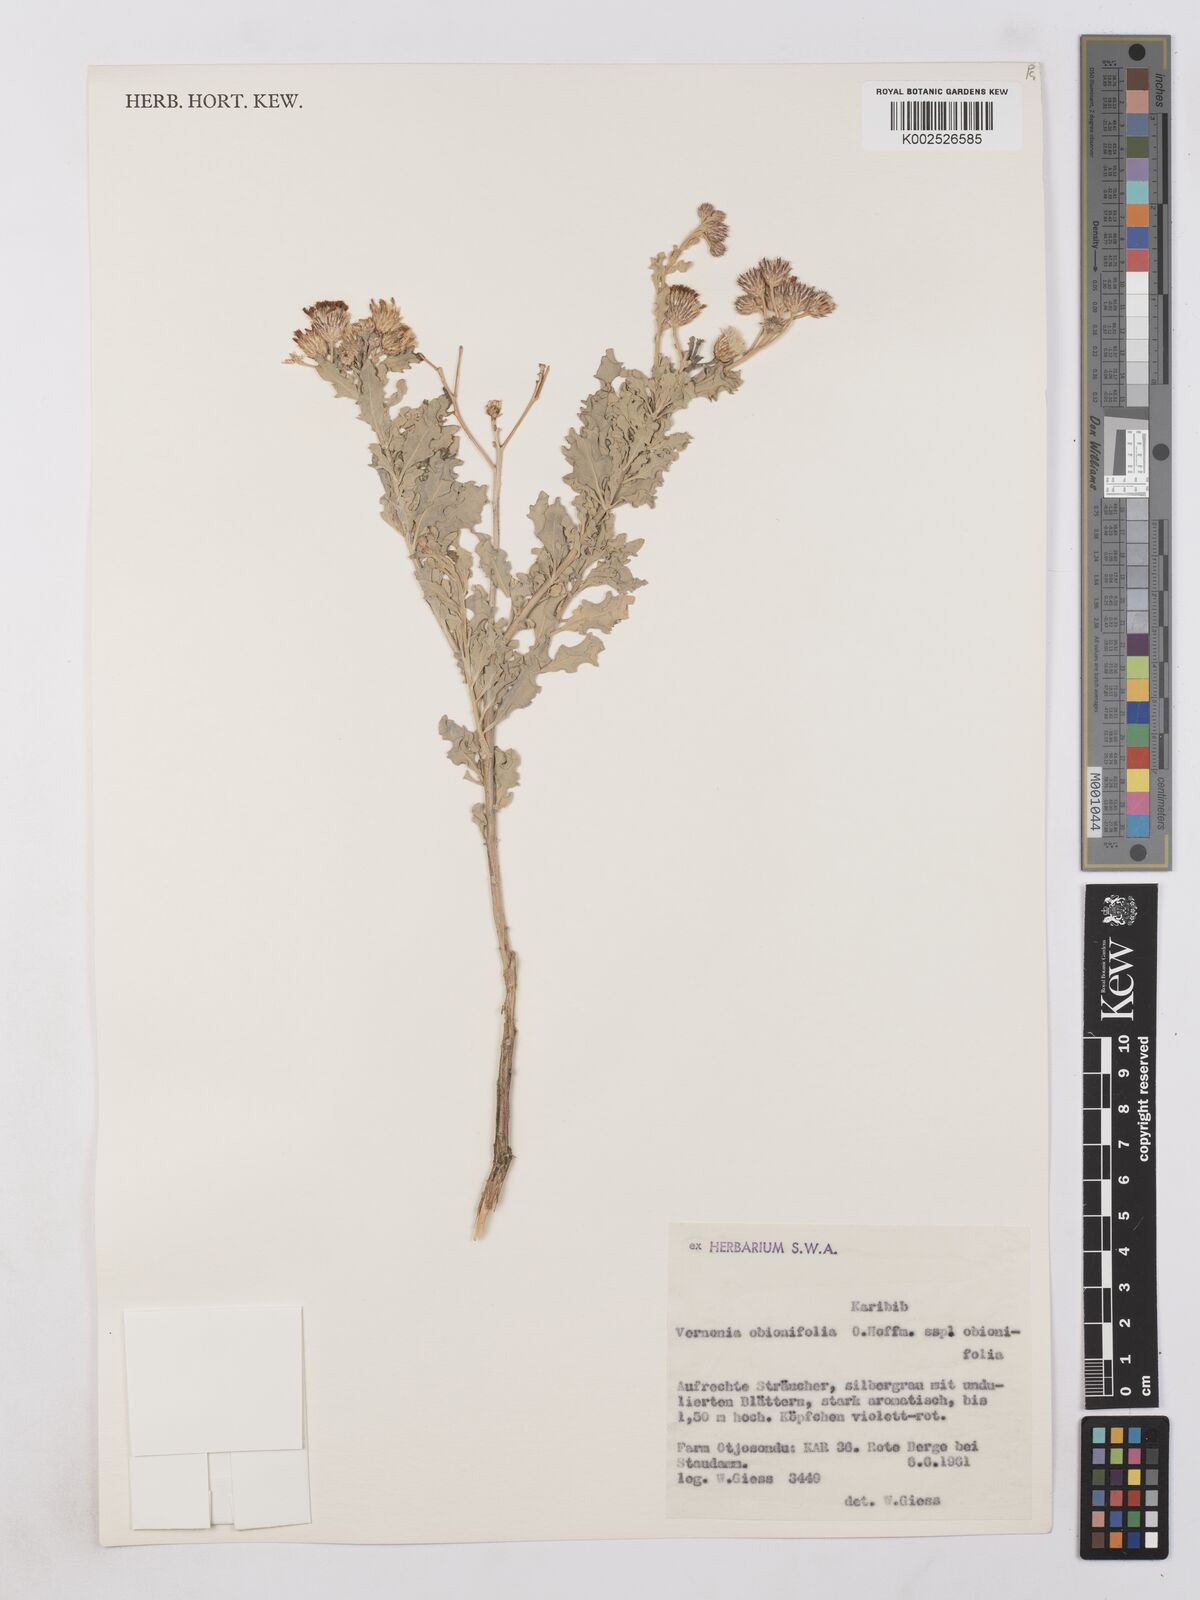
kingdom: Plantae
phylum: Tracheophyta
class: Magnoliopsida
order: Asterales
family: Asteraceae
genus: Namibithamnus
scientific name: Namibithamnus obionifolius
